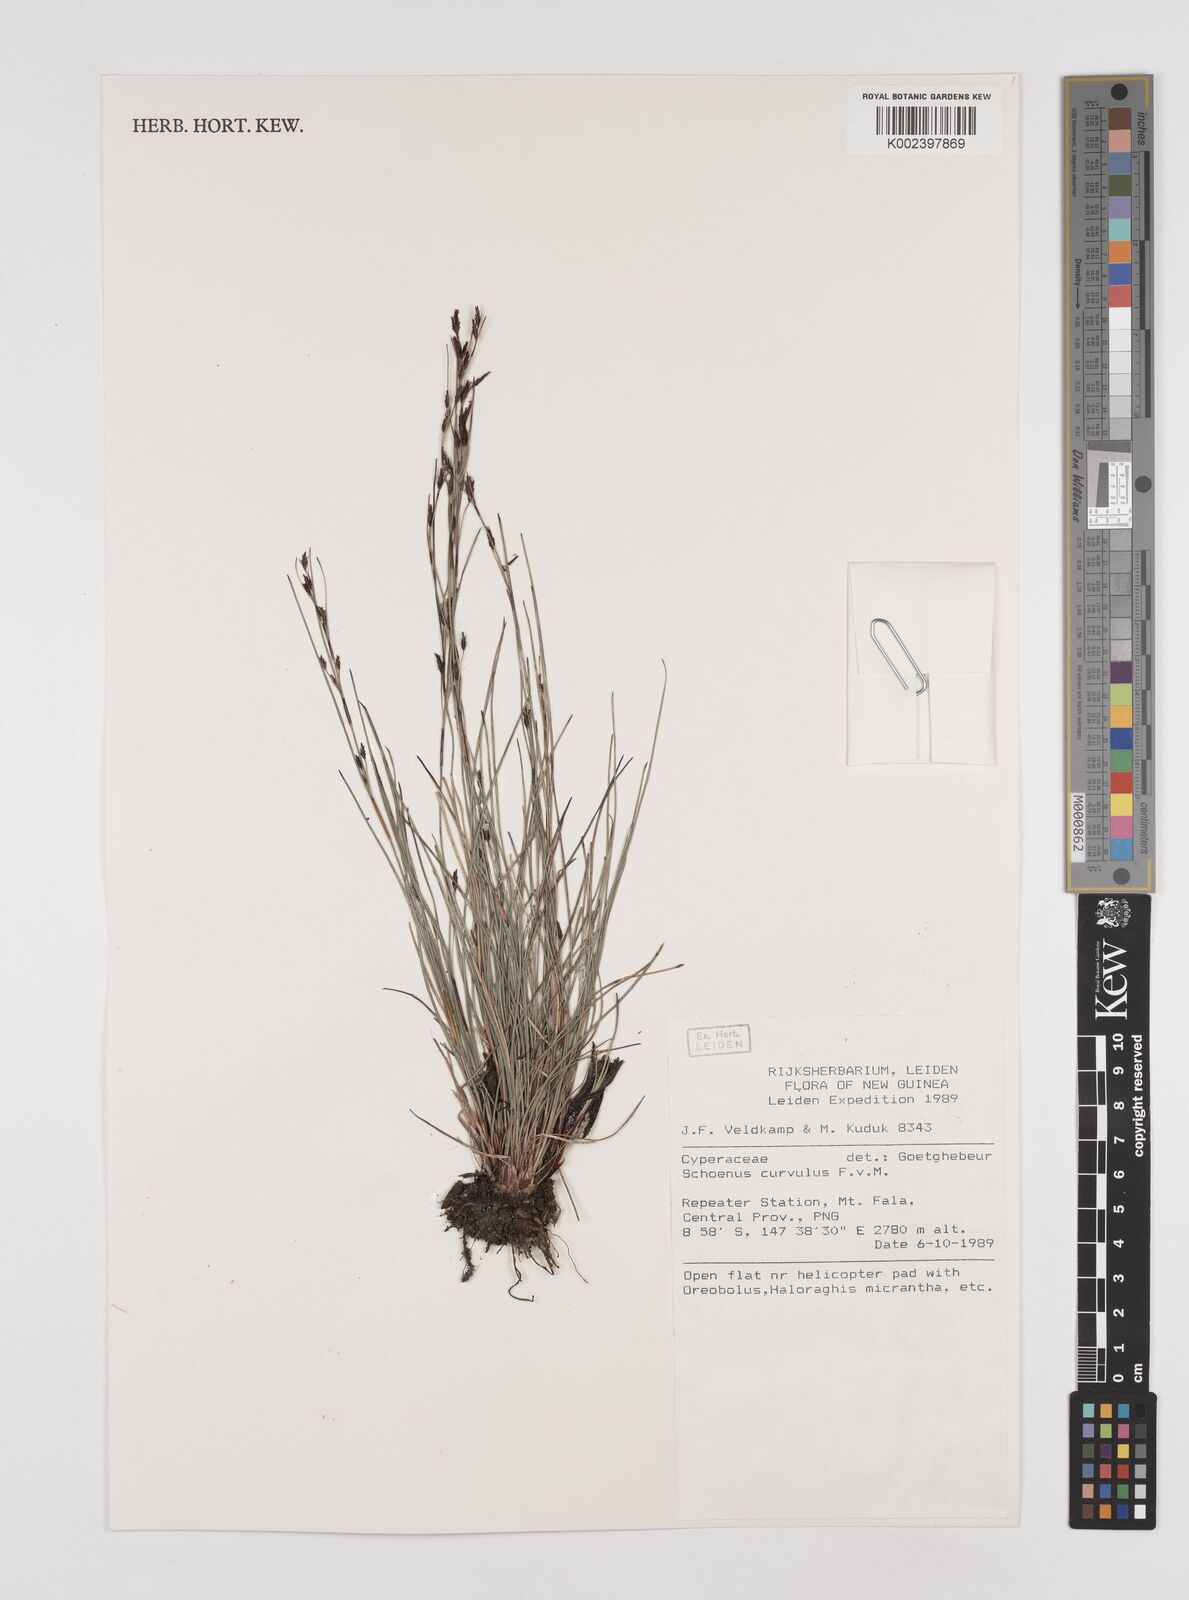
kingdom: Plantae
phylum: Tracheophyta
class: Liliopsida
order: Poales
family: Cyperaceae
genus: Schoenus
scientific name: Schoenus curvulus
